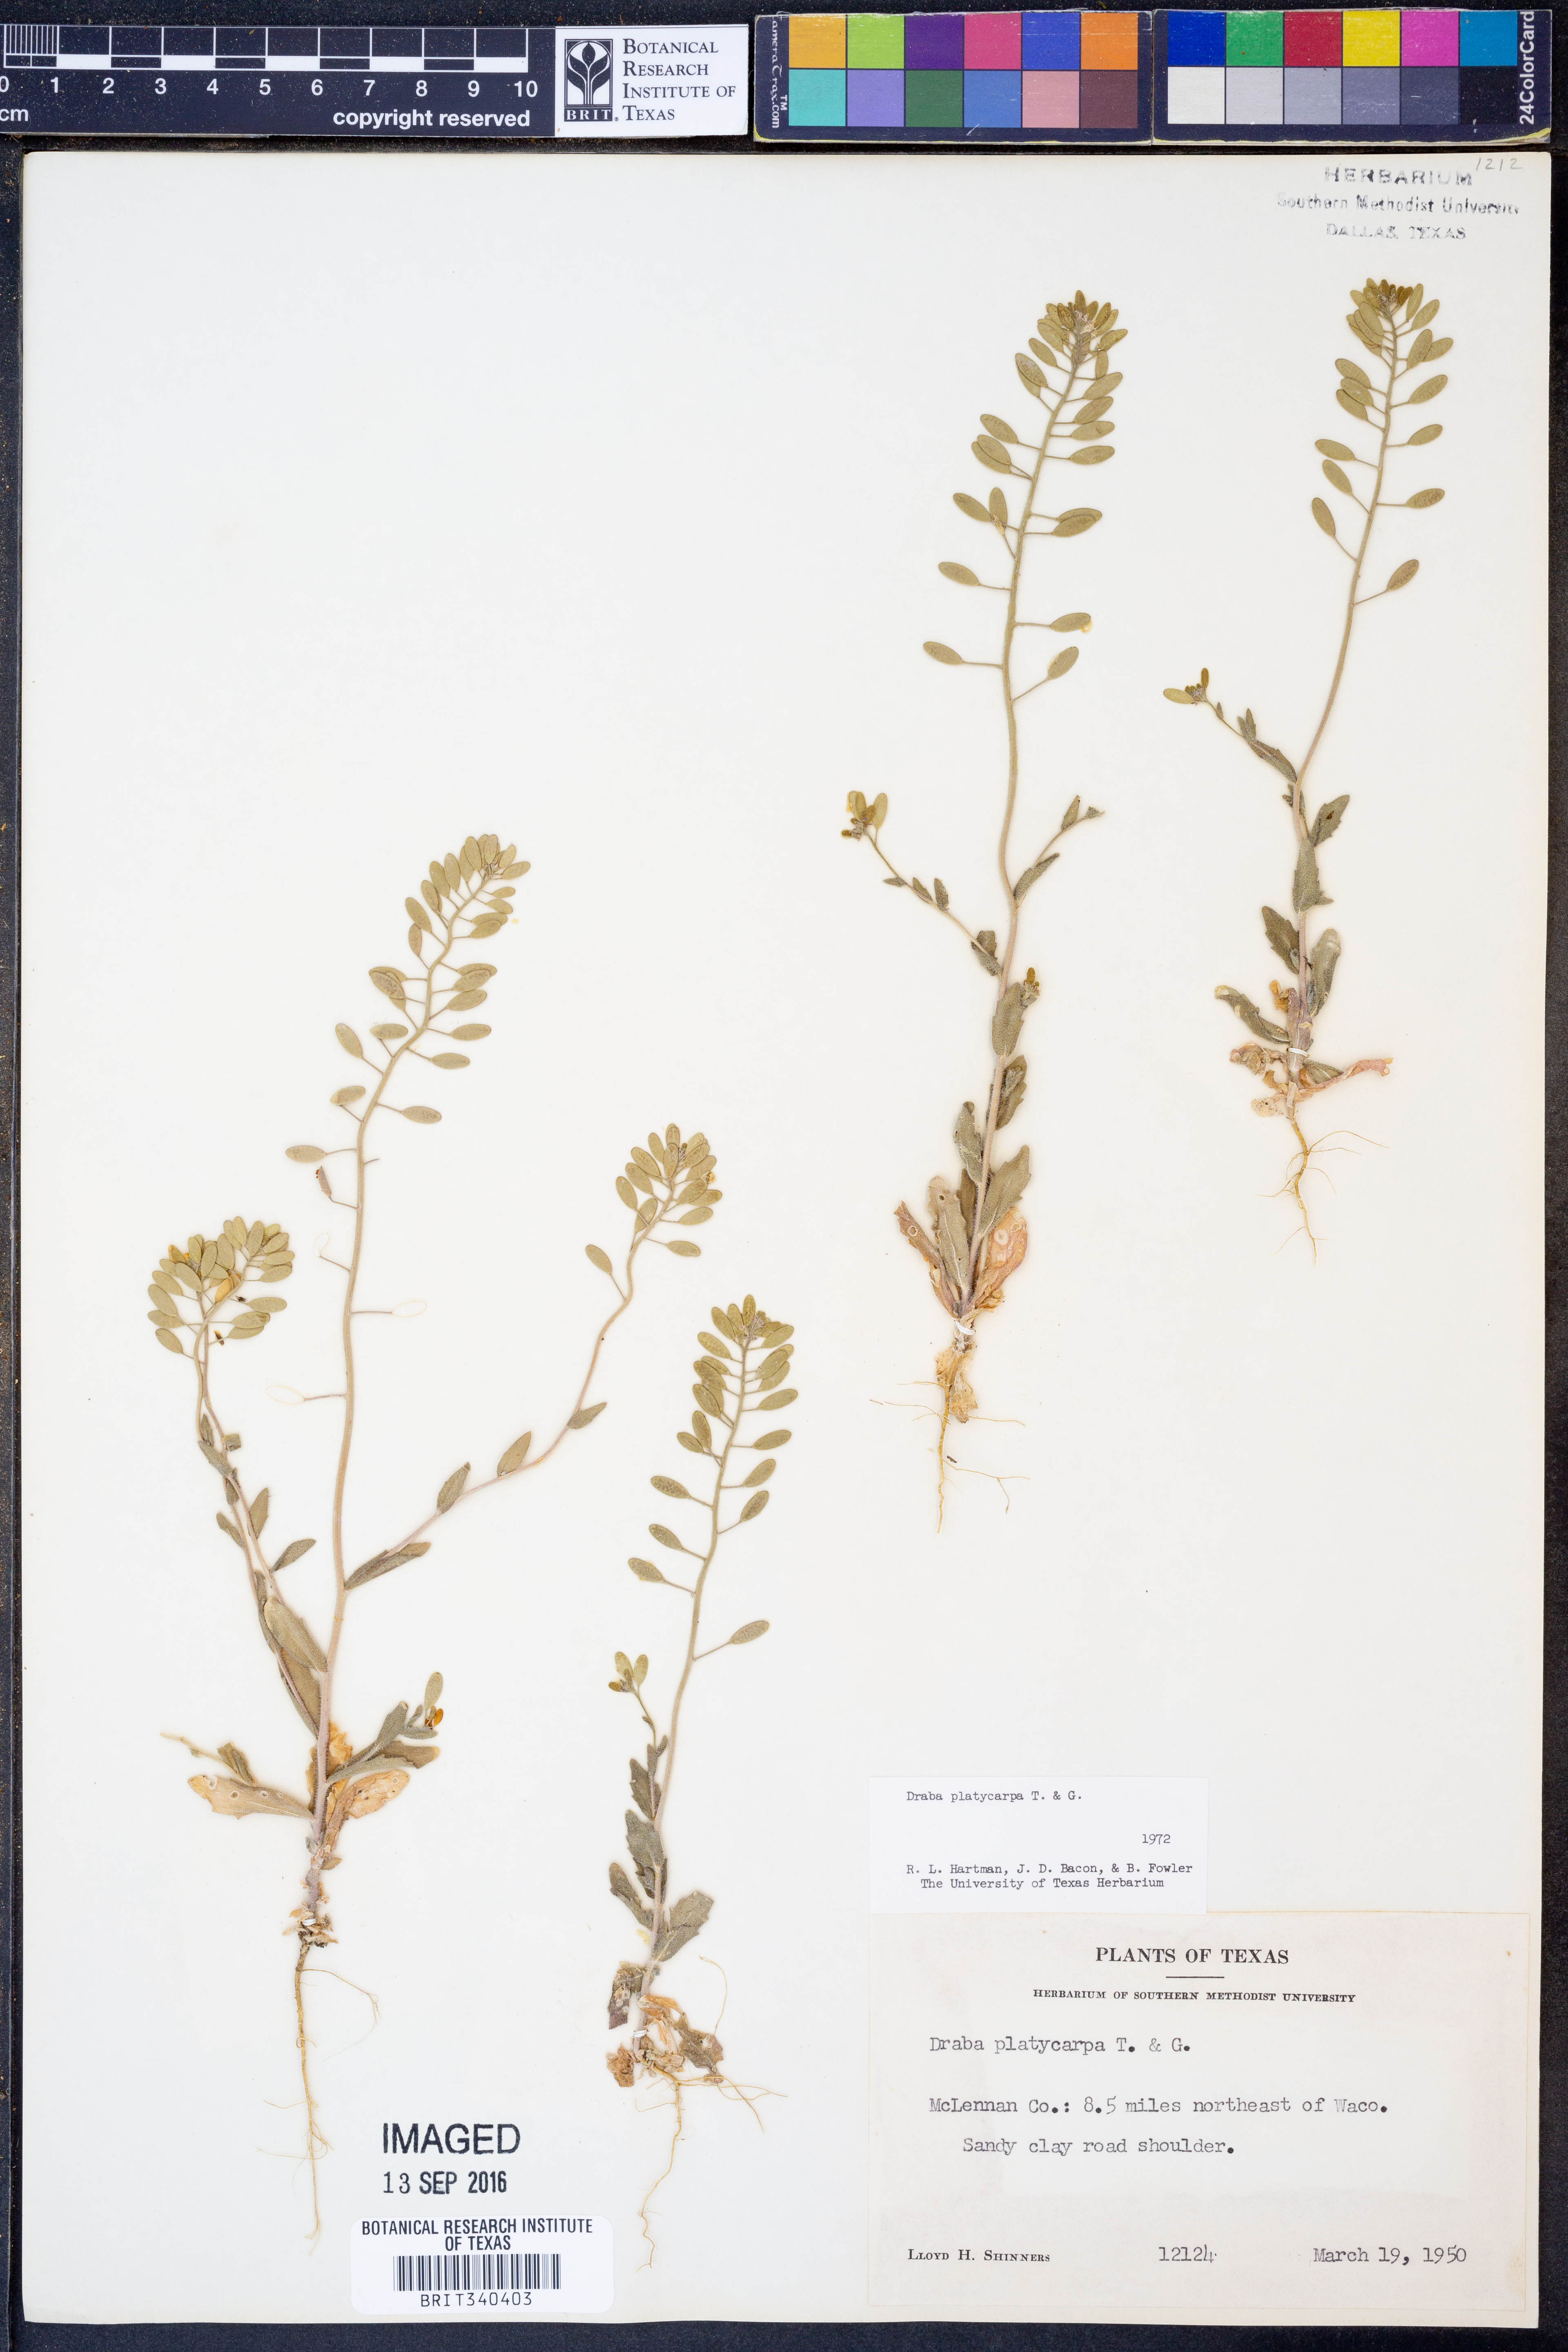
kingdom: Plantae
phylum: Tracheophyta
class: Magnoliopsida
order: Brassicales
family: Brassicaceae
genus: Tomostima
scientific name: Tomostima platycarpa
